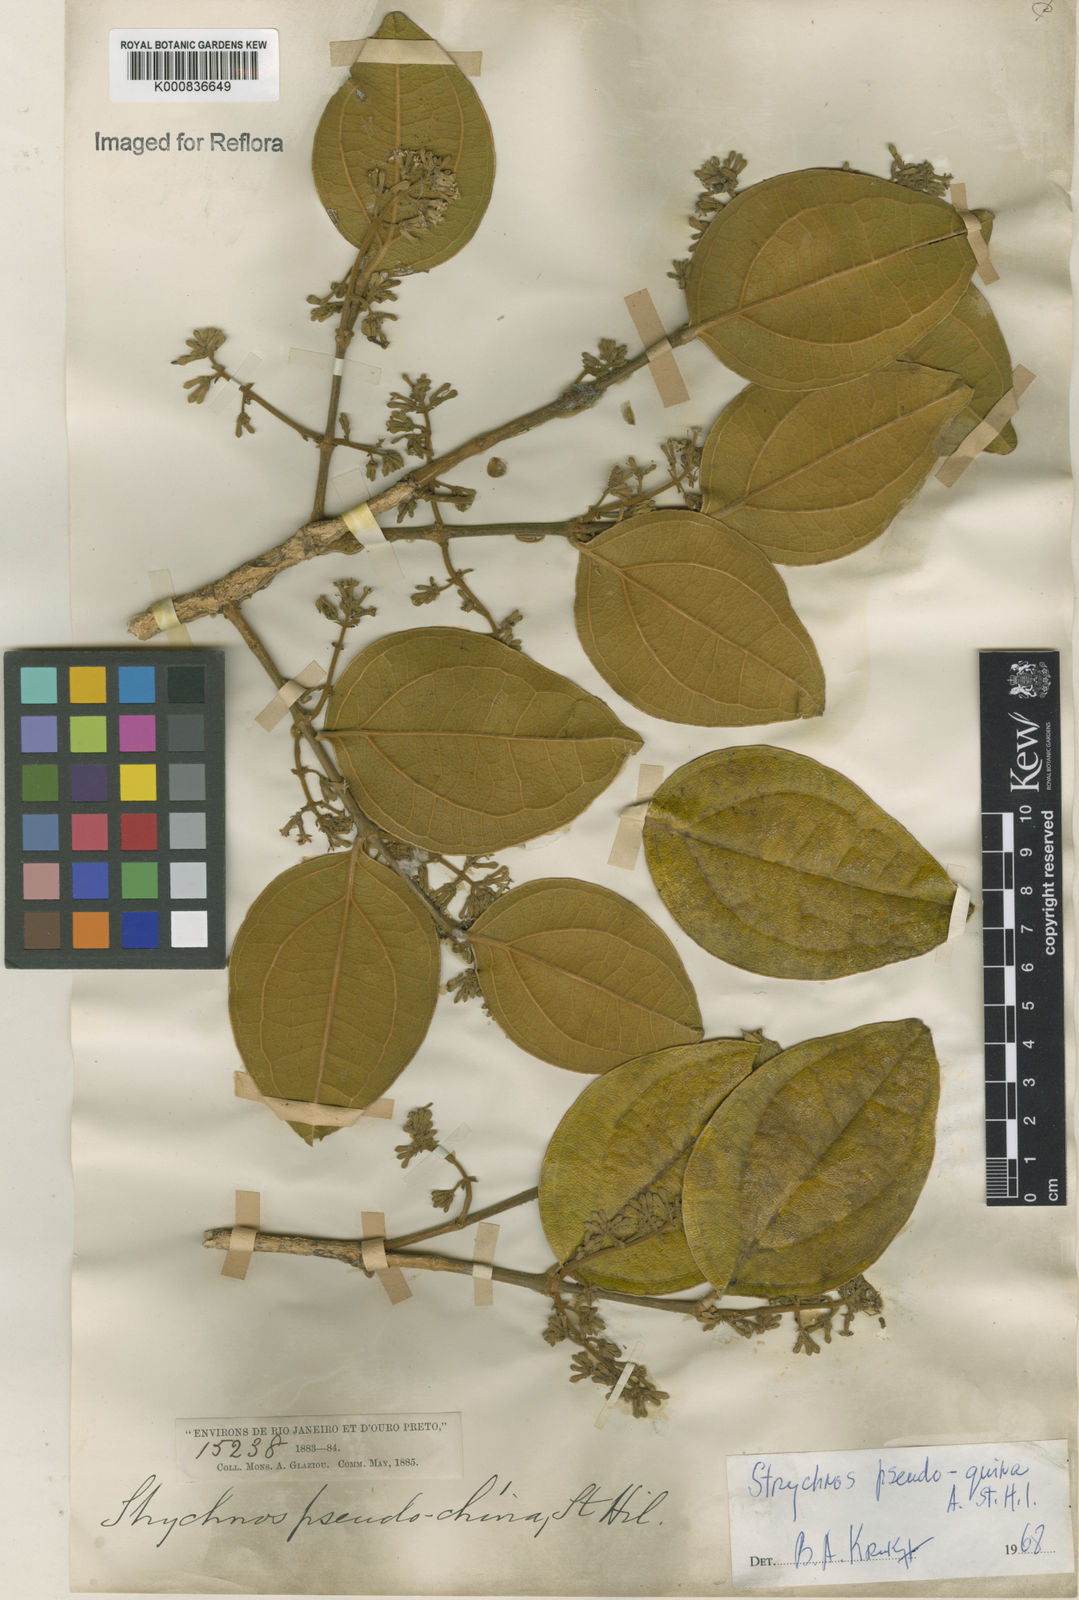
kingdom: Plantae
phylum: Tracheophyta
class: Magnoliopsida
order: Gentianales
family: Loganiaceae
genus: Strychnos
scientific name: Strychnos pseudoquina
